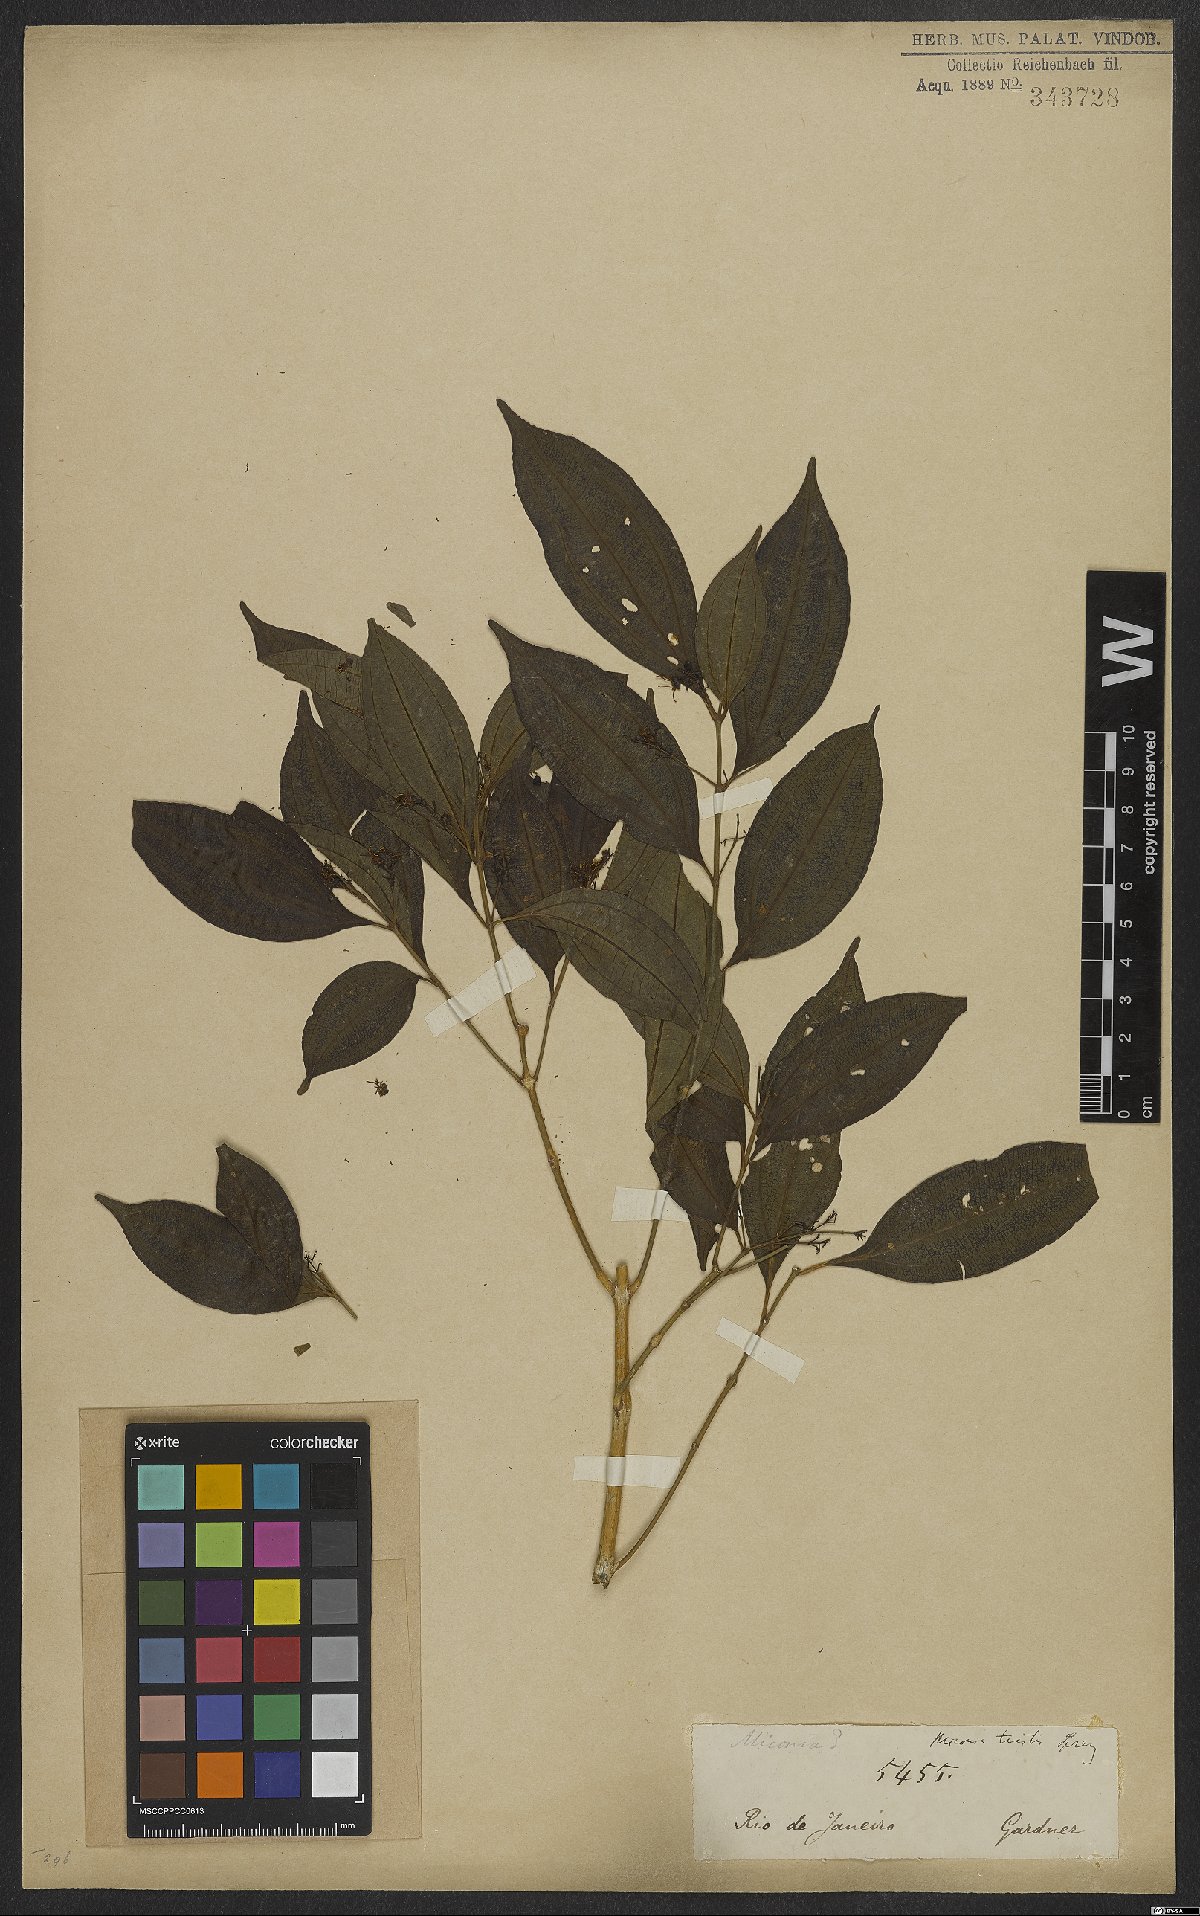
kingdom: Plantae
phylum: Tracheophyta
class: Magnoliopsida
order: Myrtales
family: Melastomataceae
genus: Miconia
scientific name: Miconia tristis
